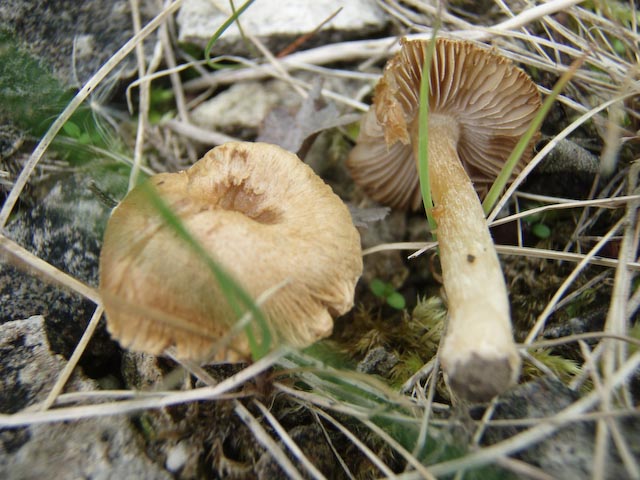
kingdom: Fungi
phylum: Basidiomycota
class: Agaricomycetes
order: Agaricales
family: Inocybaceae
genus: Inocybe
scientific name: Inocybe
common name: trævlhat
